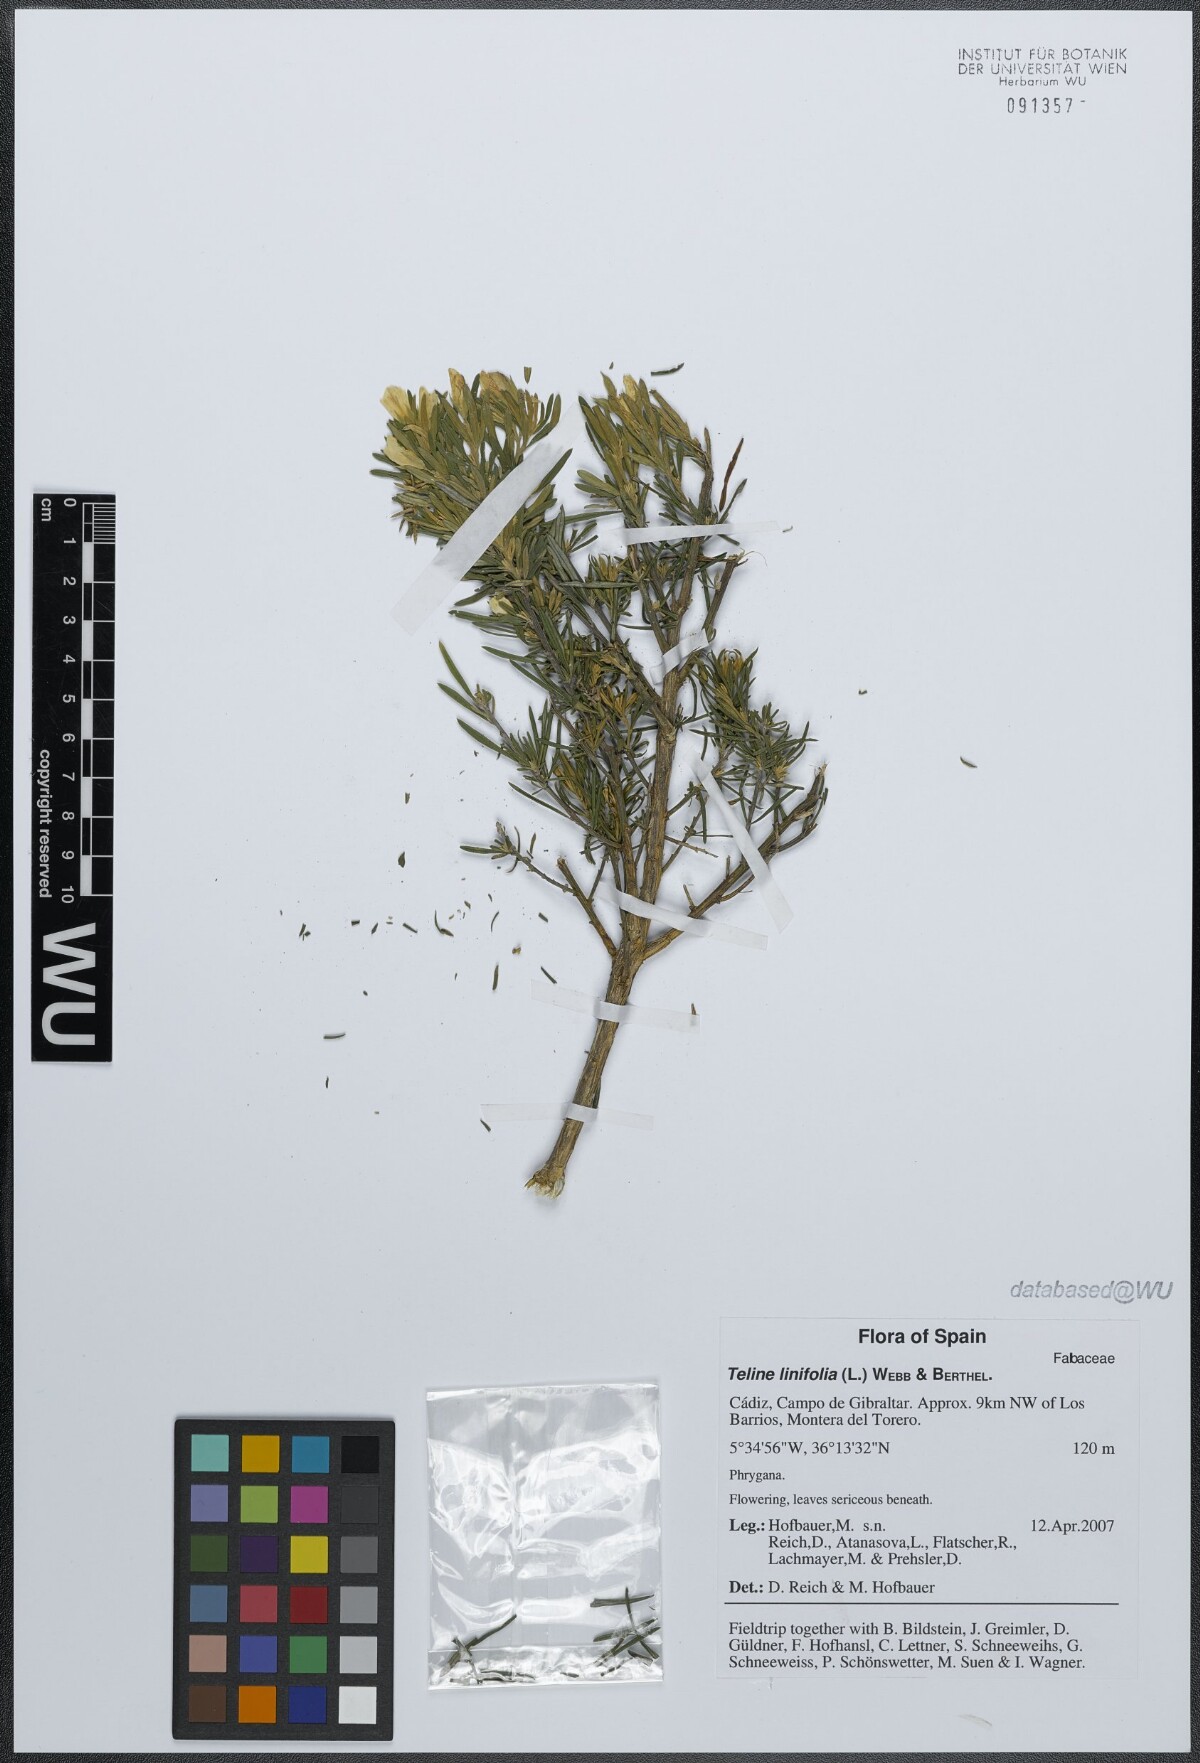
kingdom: Plantae
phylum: Tracheophyta
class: Magnoliopsida
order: Fabales
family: Fabaceae
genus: Genista
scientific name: Genista linifolia
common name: Mediterranean broom
